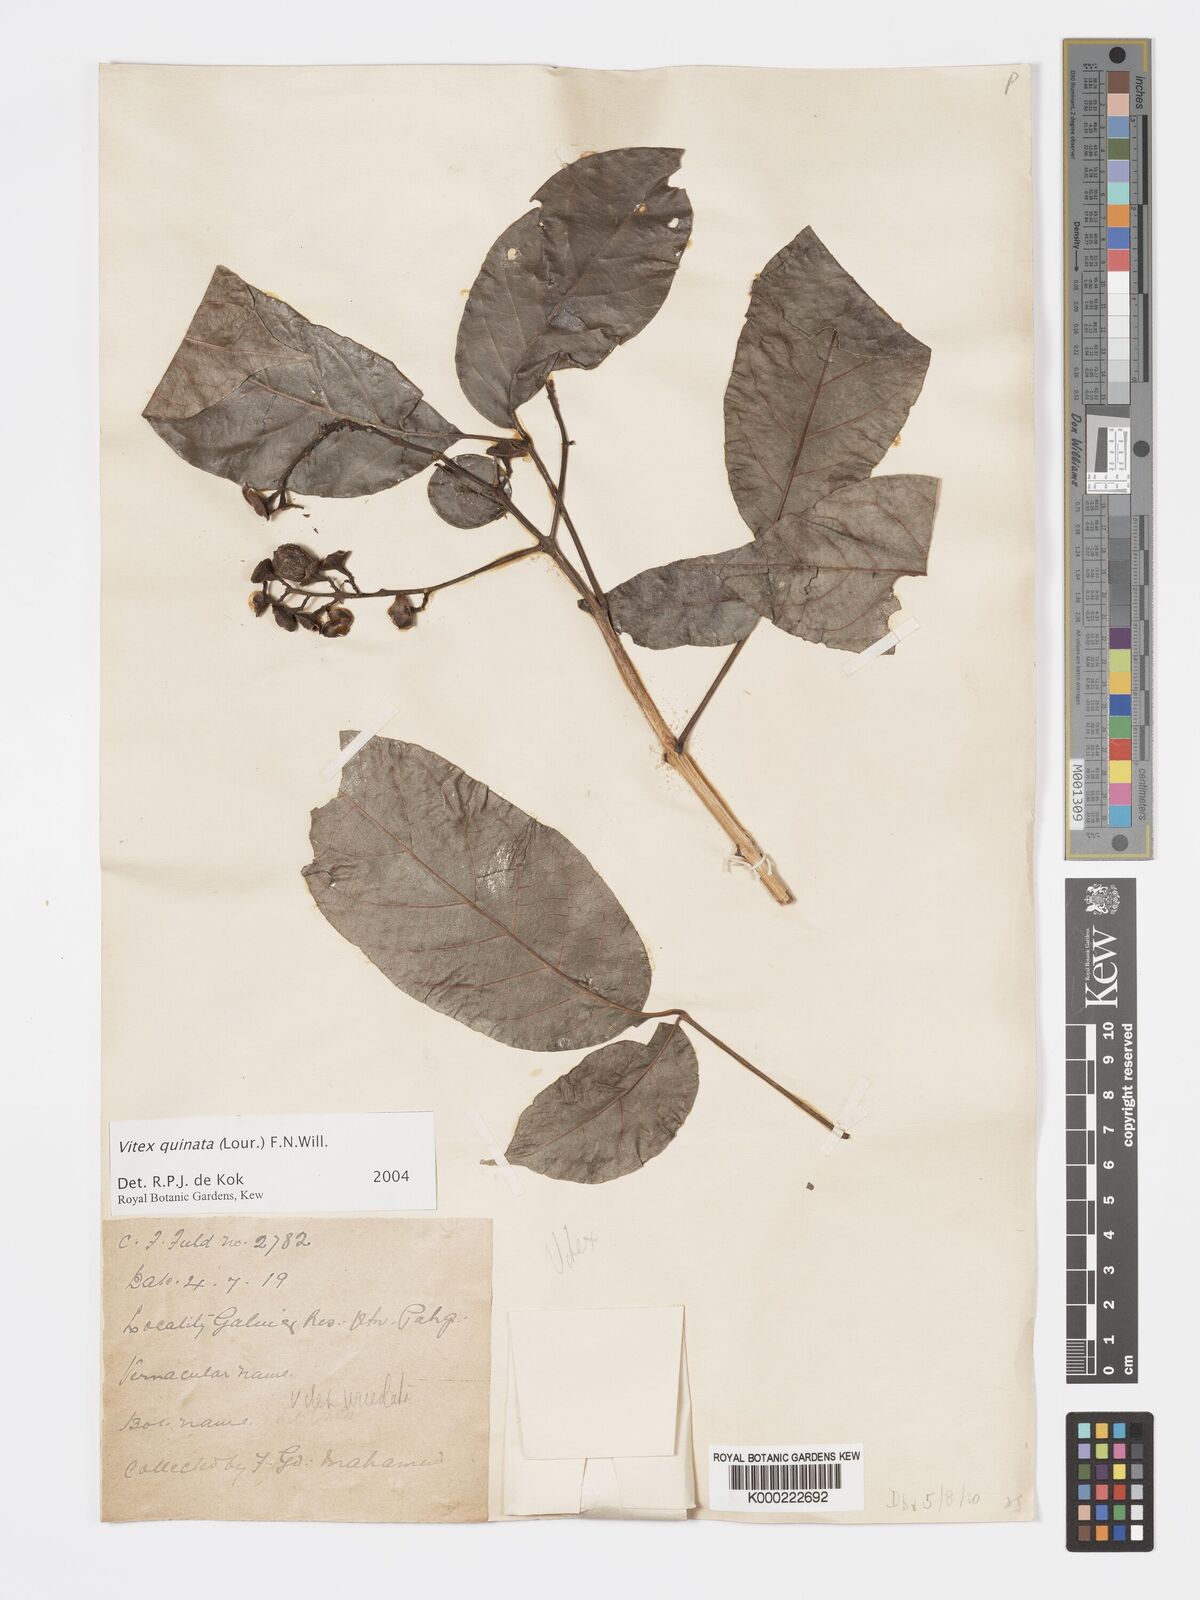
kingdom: Plantae
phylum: Tracheophyta
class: Magnoliopsida
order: Lamiales
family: Lamiaceae
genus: Vitex
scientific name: Vitex quinata
